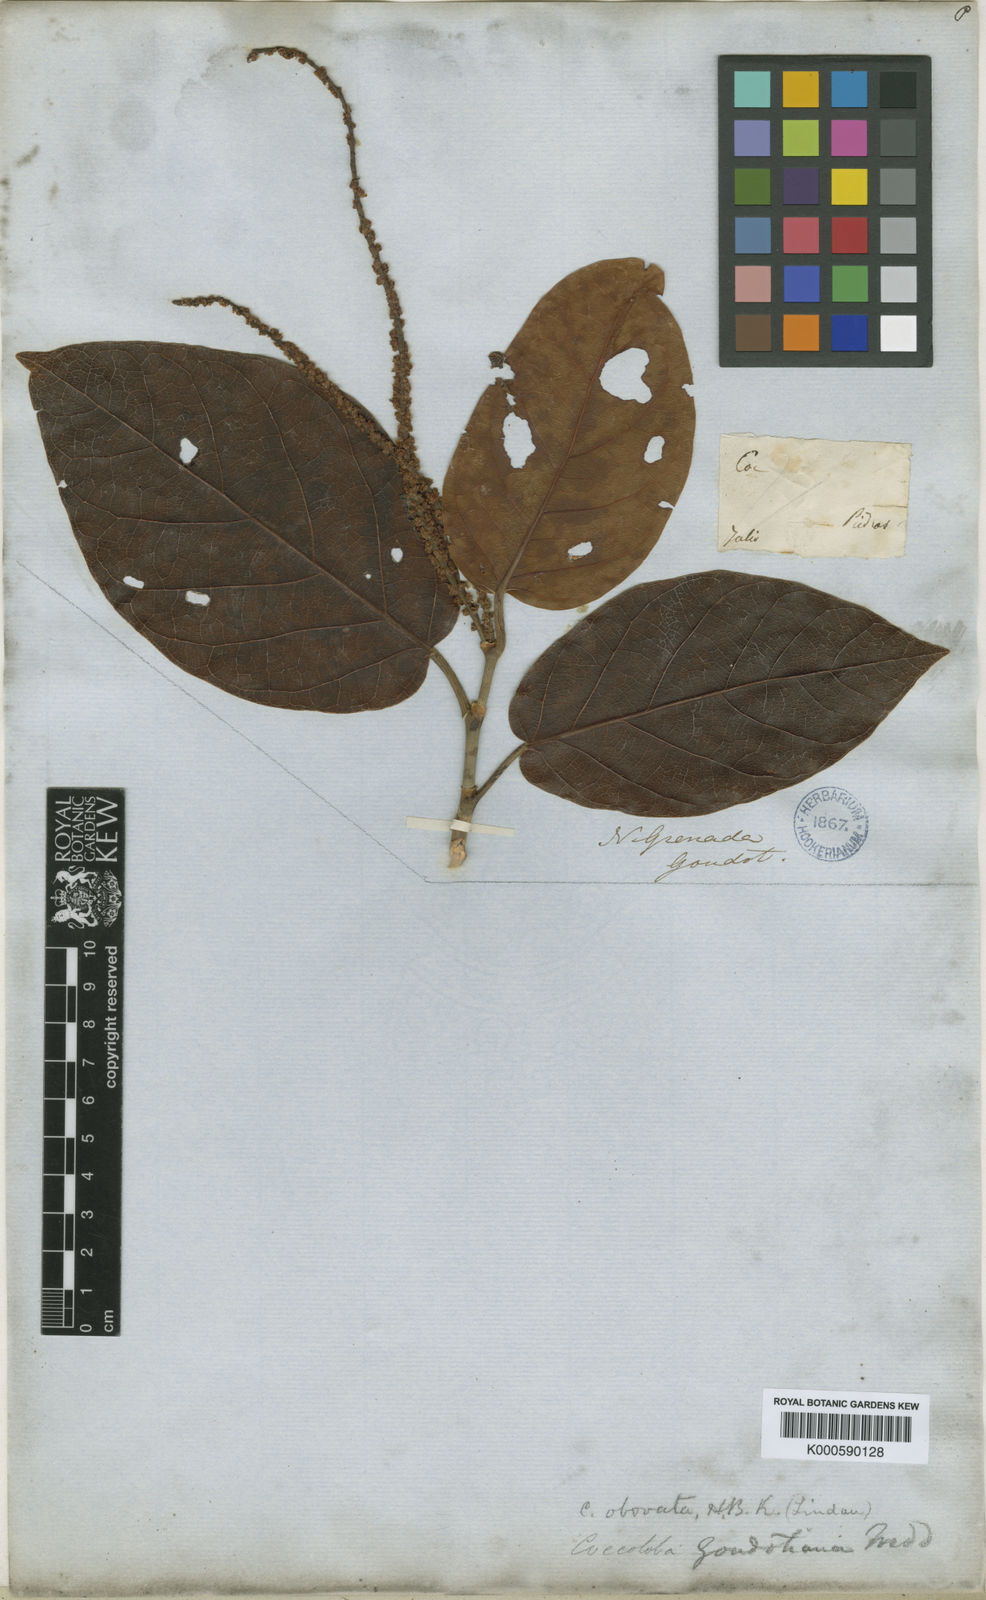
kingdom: Plantae
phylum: Tracheophyta
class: Magnoliopsida
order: Caryophyllales
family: Polygonaceae
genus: Coccoloba
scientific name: Coccoloba obovata
